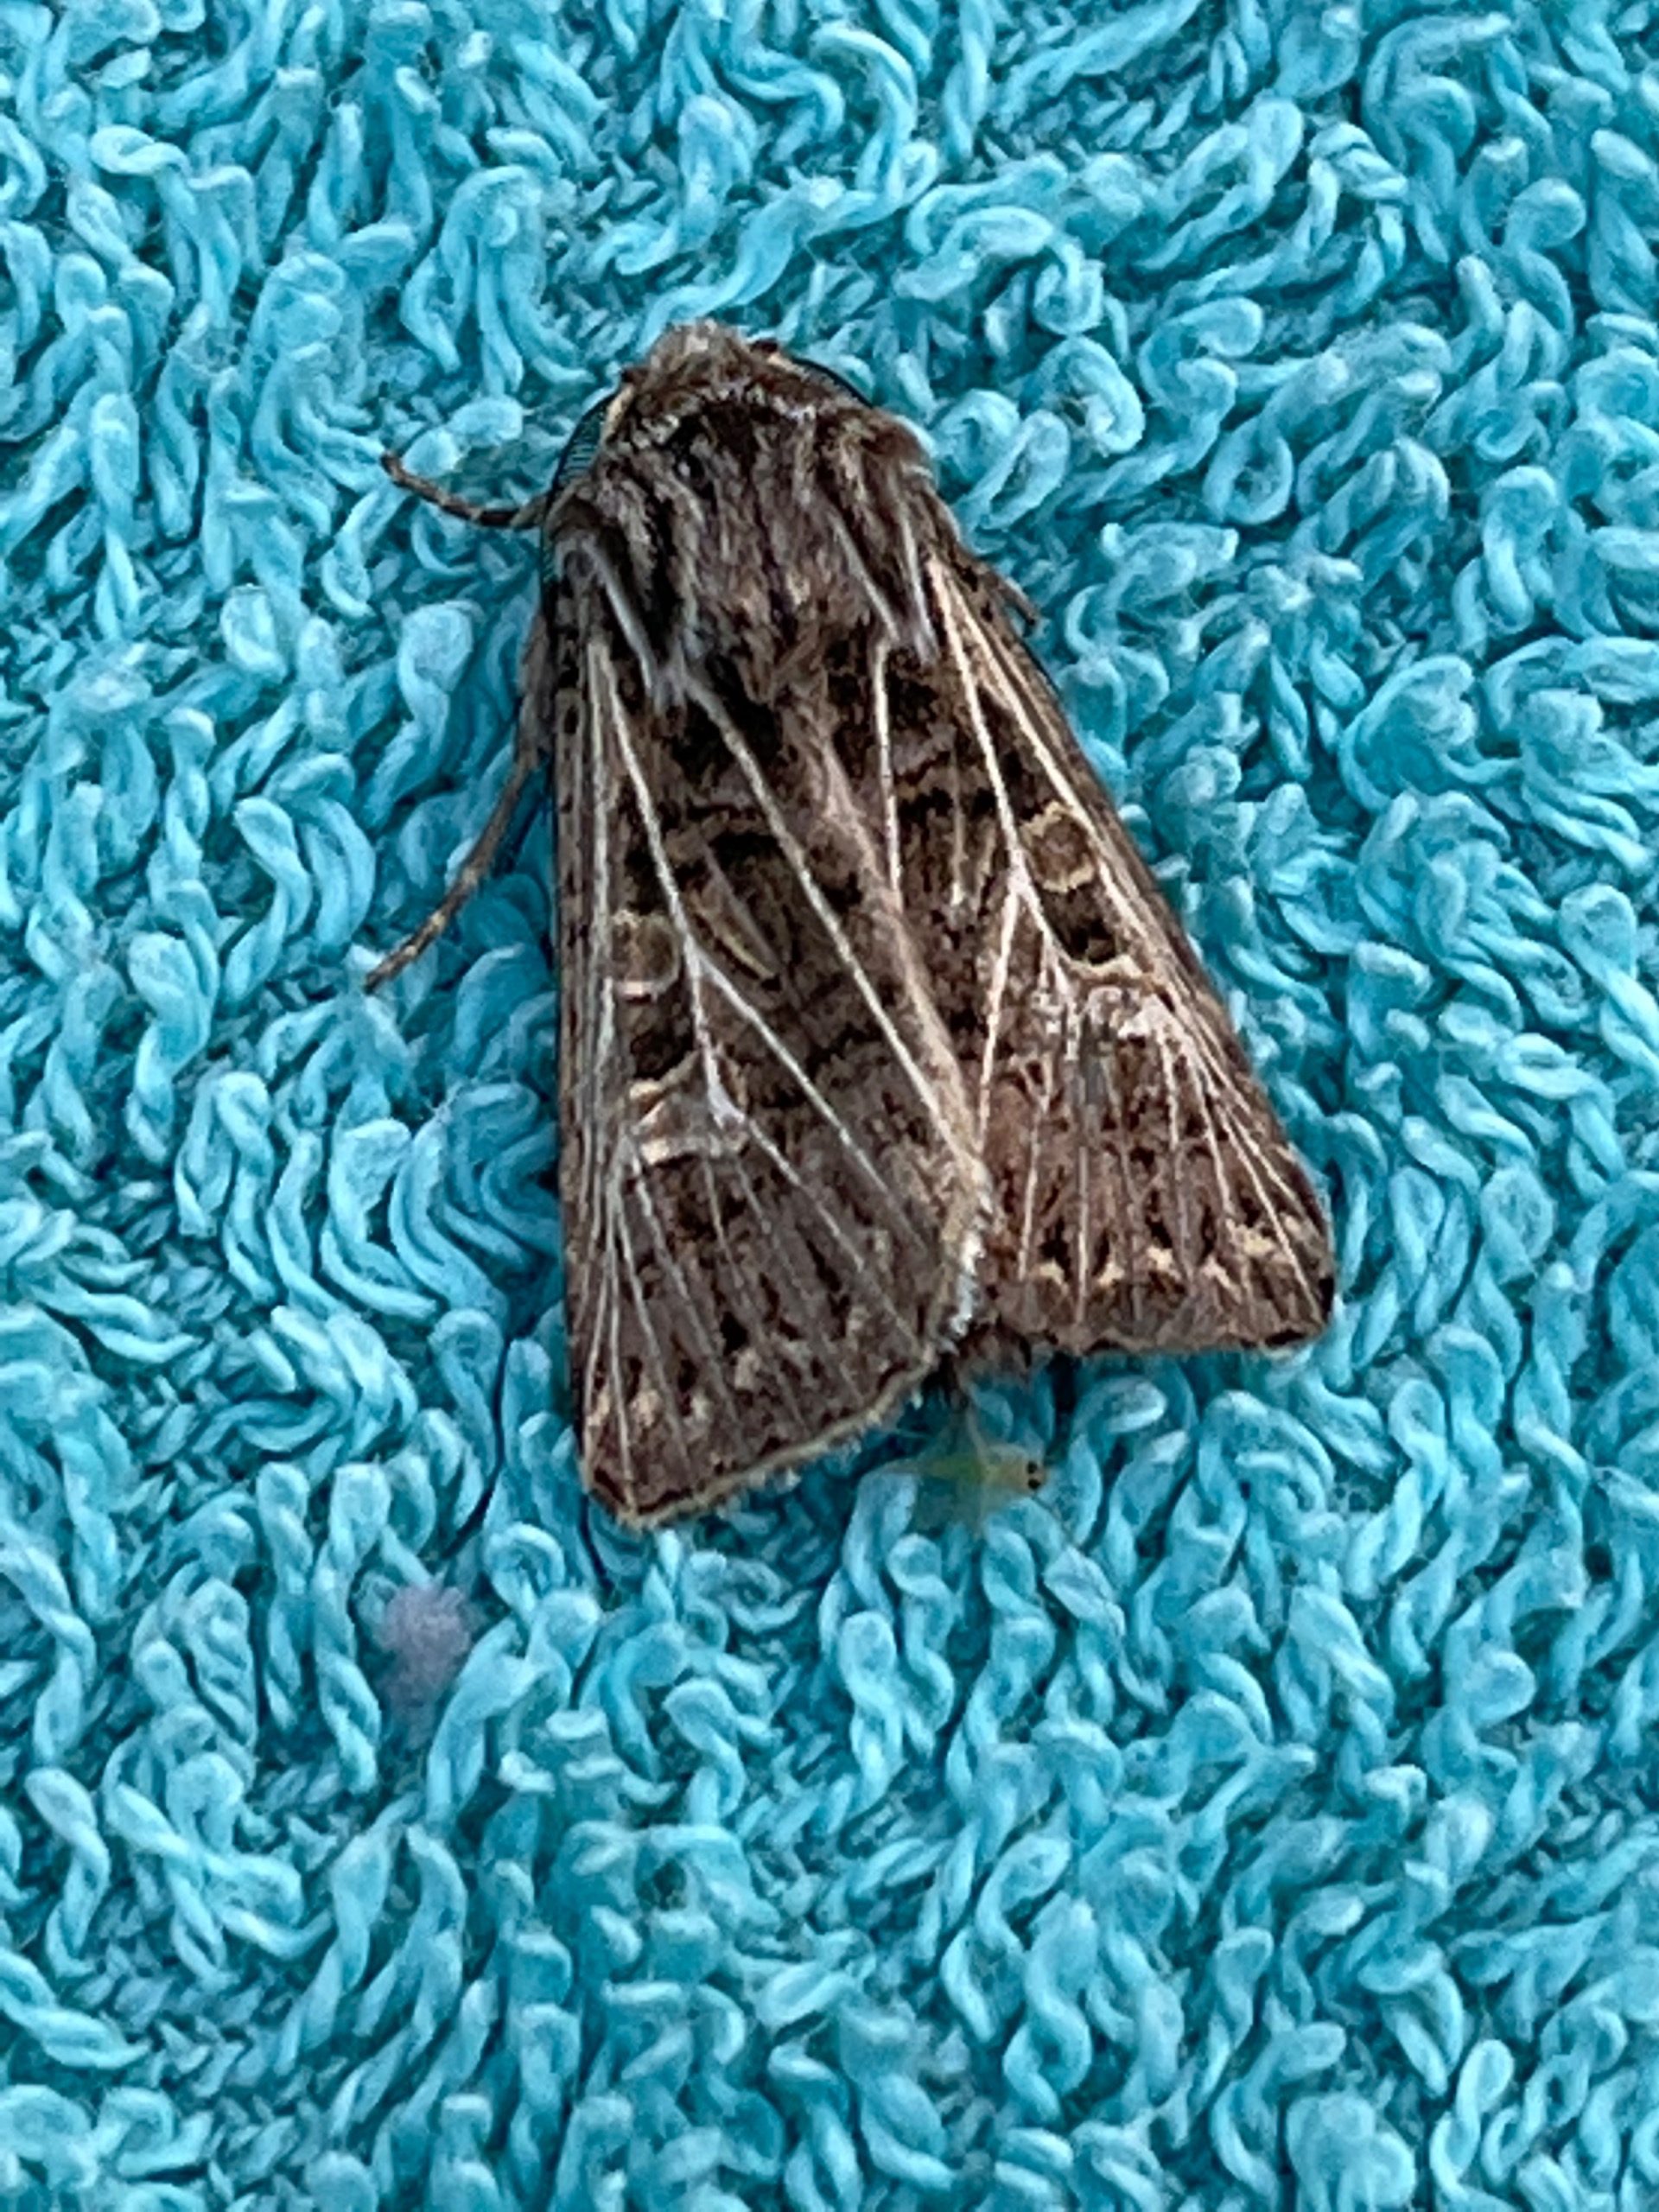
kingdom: Animalia
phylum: Arthropoda
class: Insecta
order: Lepidoptera
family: Noctuidae
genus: Tholera
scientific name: Tholera decimalis
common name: Hvidåret græsugle
